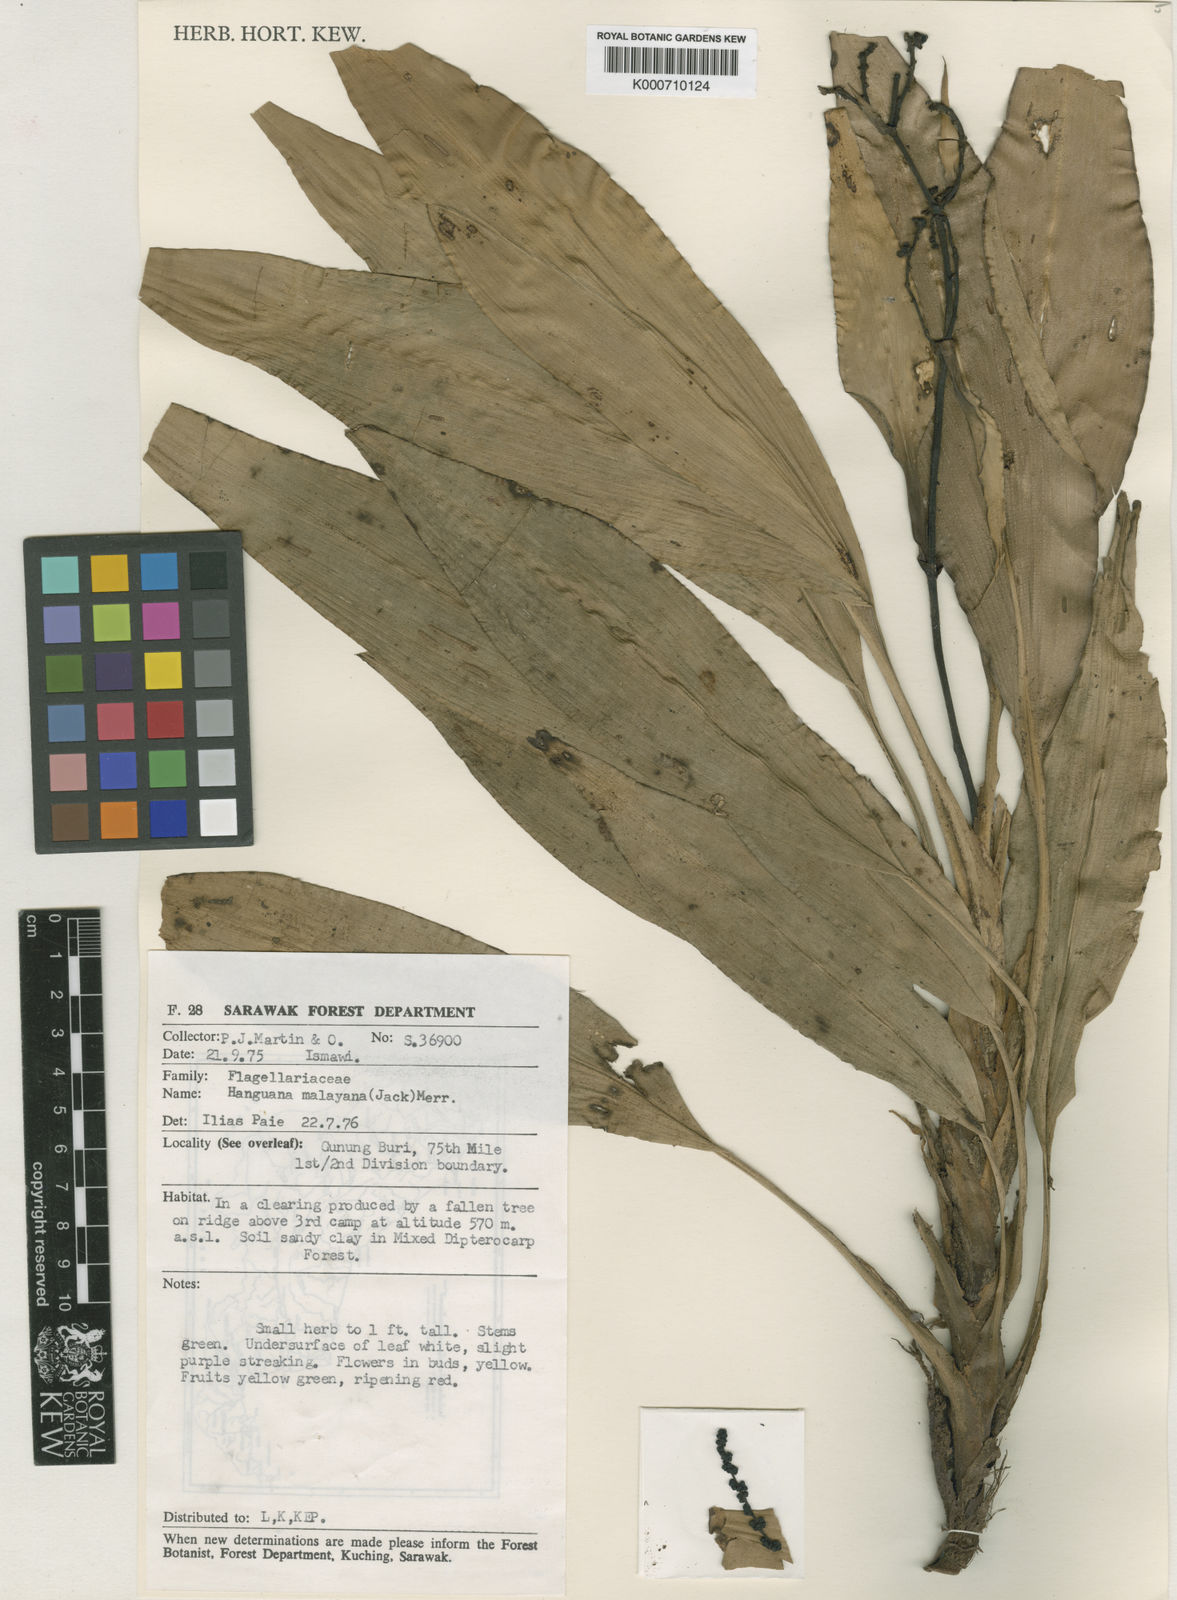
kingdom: Plantae
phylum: Tracheophyta
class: Liliopsida
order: Commelinales
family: Hanguanaceae
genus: Hanguana
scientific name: Hanguana malayana
